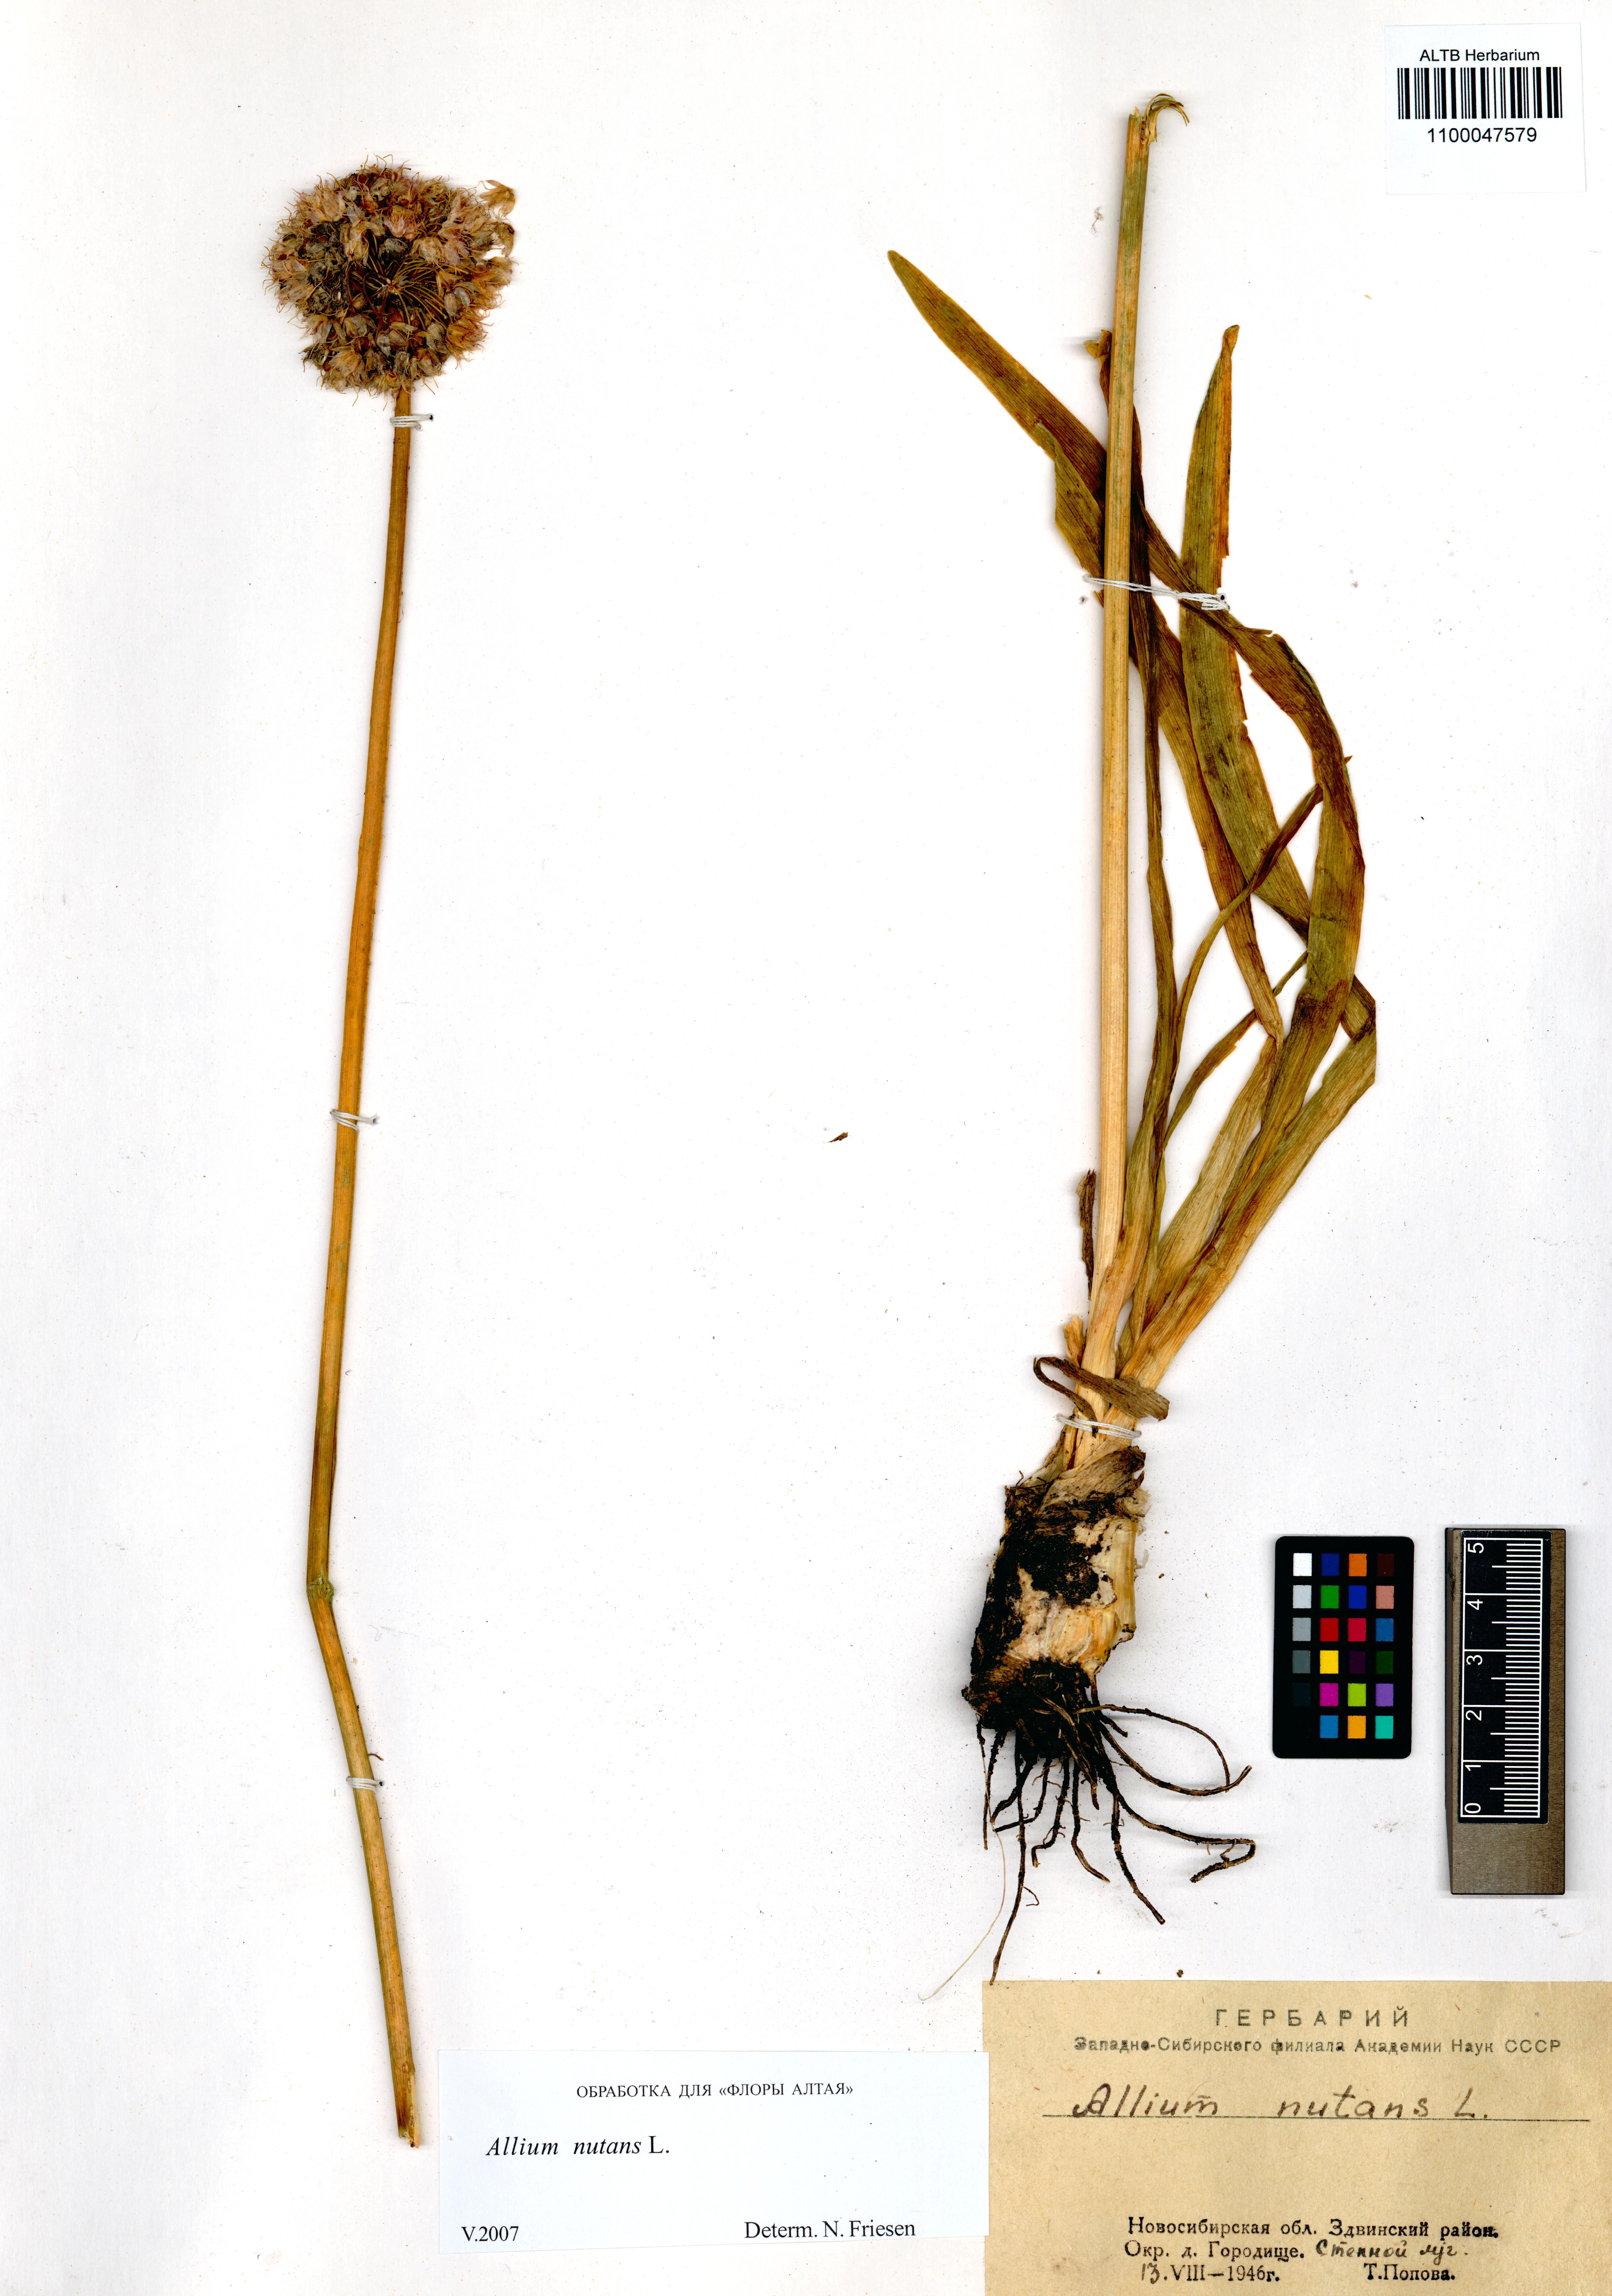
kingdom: Plantae
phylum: Tracheophyta
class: Liliopsida
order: Asparagales
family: Amaryllidaceae
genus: Allium
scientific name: Allium nutans
